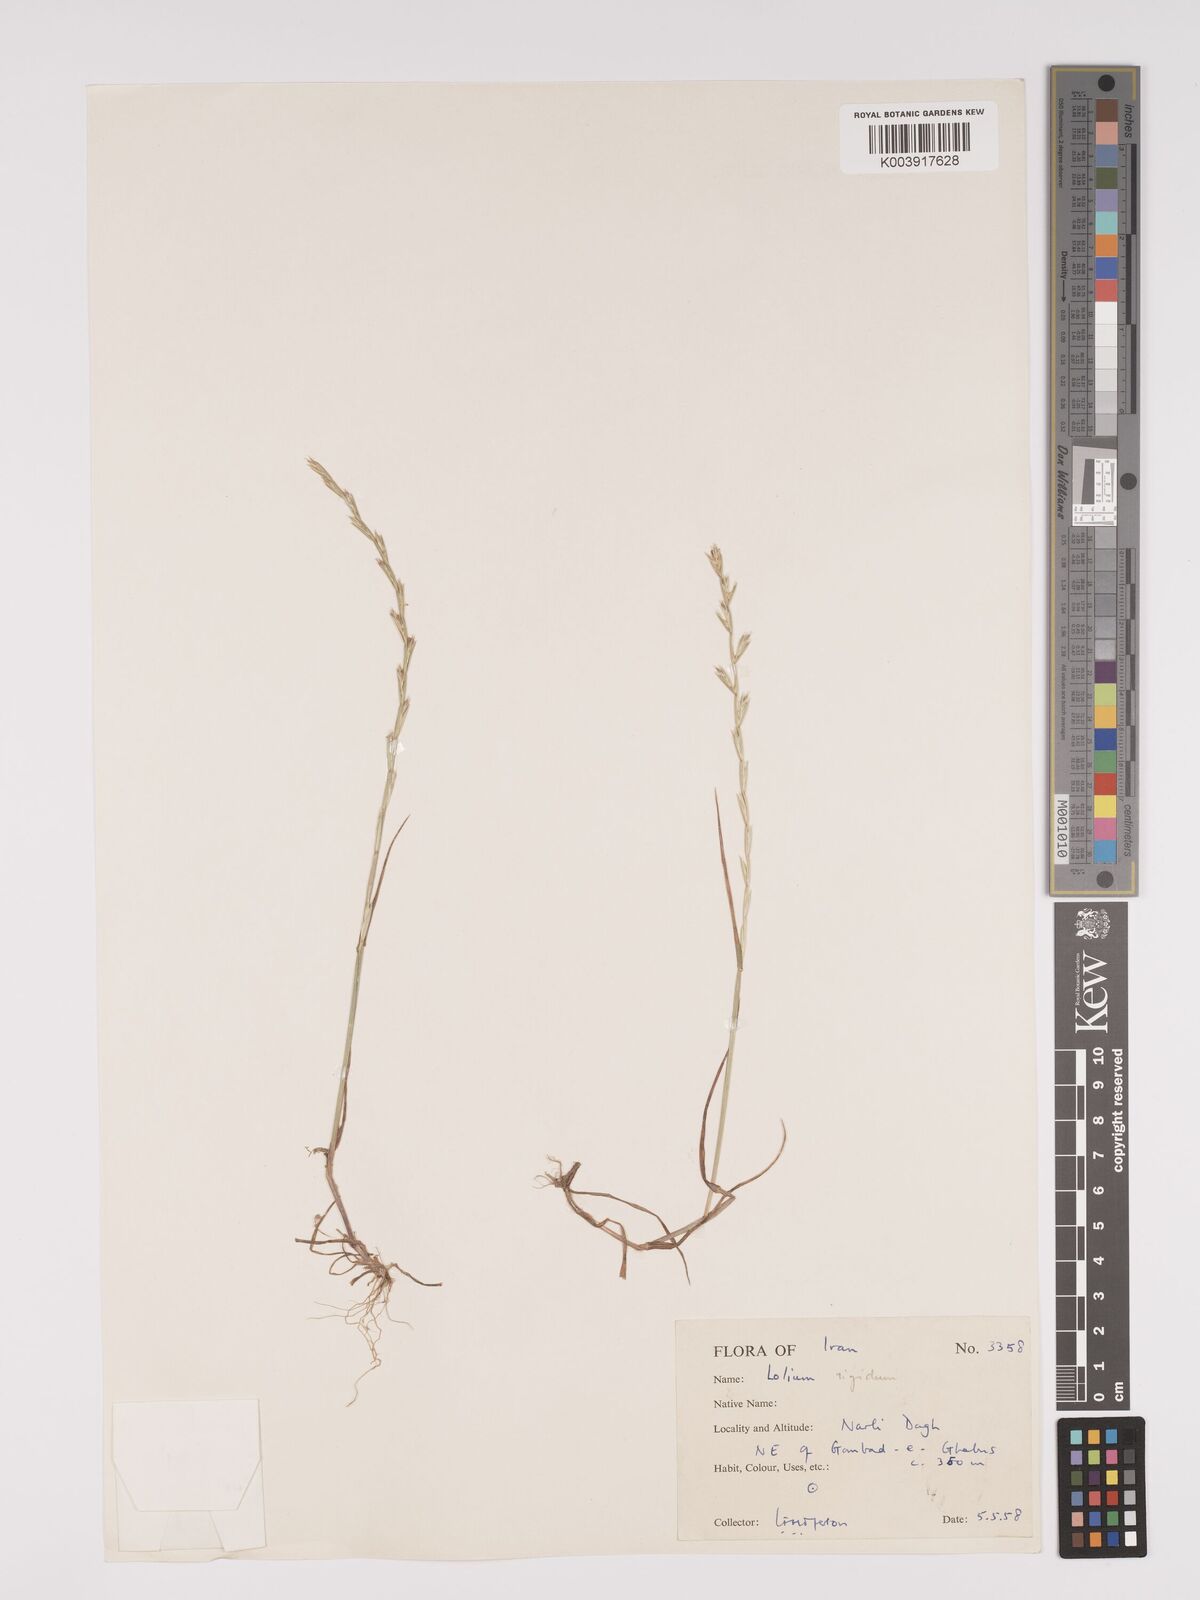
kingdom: Plantae
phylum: Tracheophyta
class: Liliopsida
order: Poales
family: Poaceae
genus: Lolium
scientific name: Lolium
